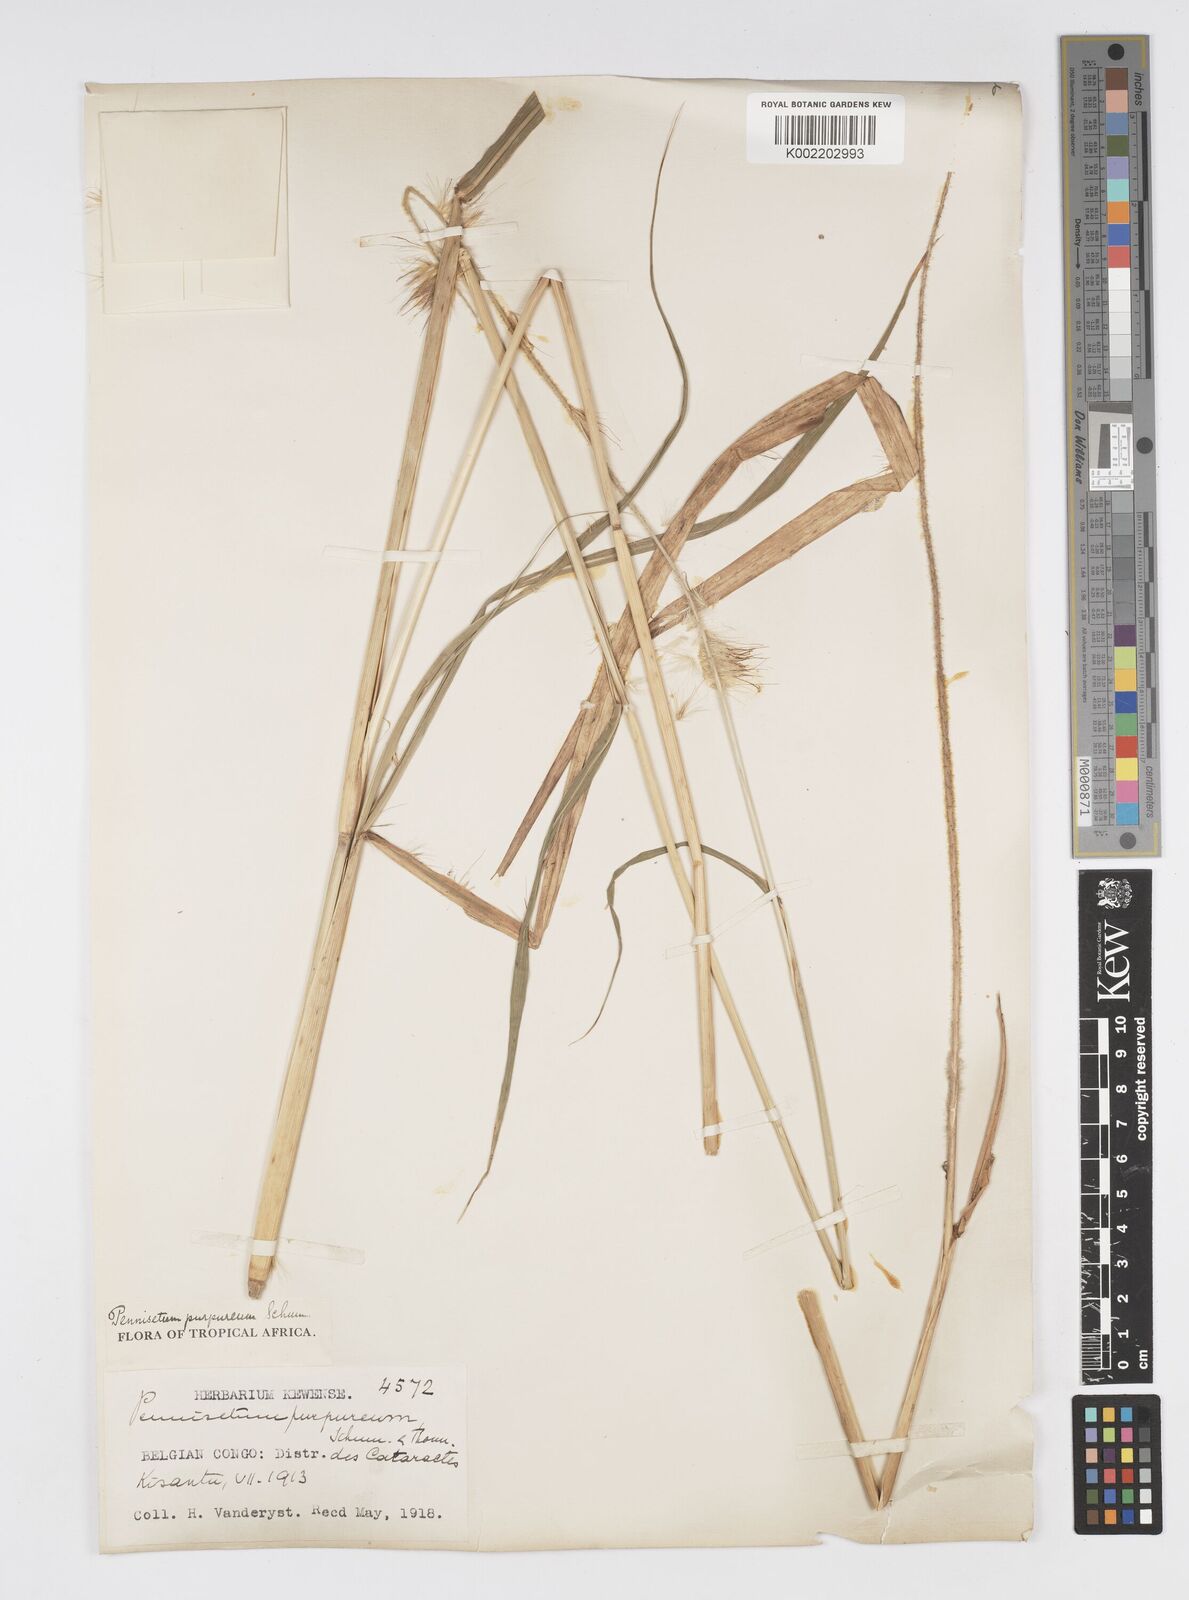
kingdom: Plantae
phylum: Tracheophyta
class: Liliopsida
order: Poales
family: Poaceae
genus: Cenchrus
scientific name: Cenchrus purpureus
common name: Elephant grass
